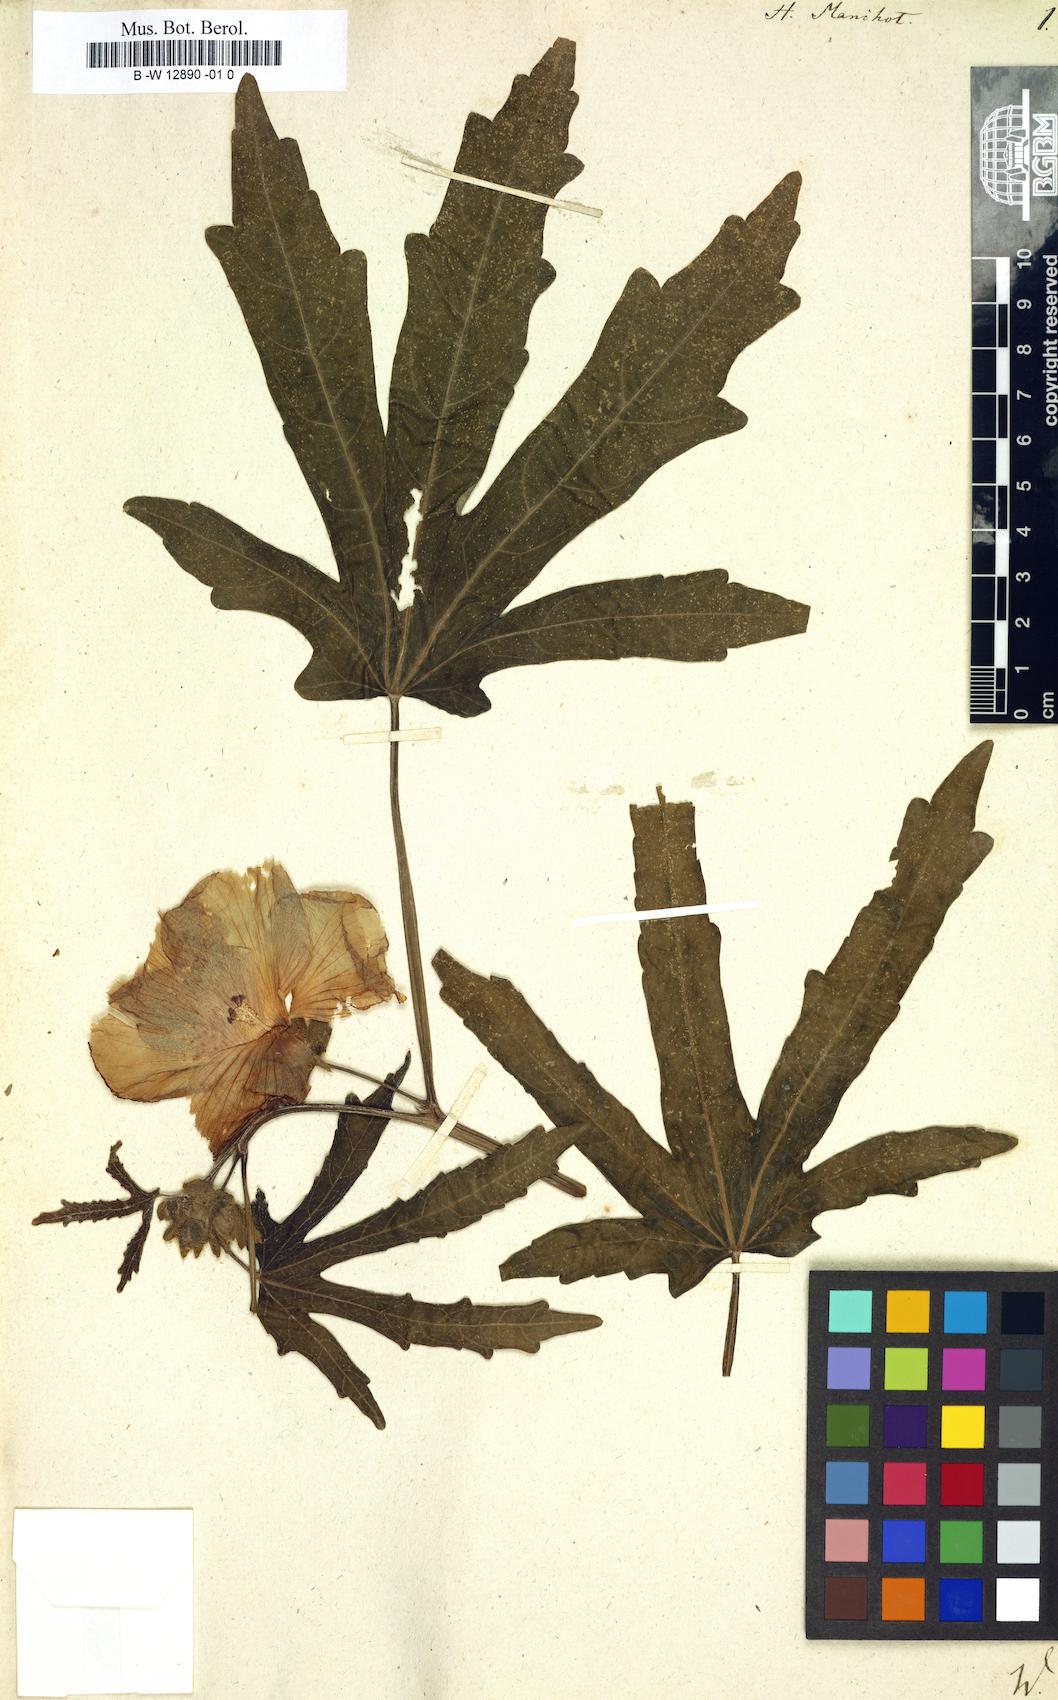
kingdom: Plantae
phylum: Tracheophyta
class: Magnoliopsida
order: Malvales
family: Malvaceae
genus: Abelmoschus
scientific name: Abelmoschus manihot
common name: Sunset muskmallow
